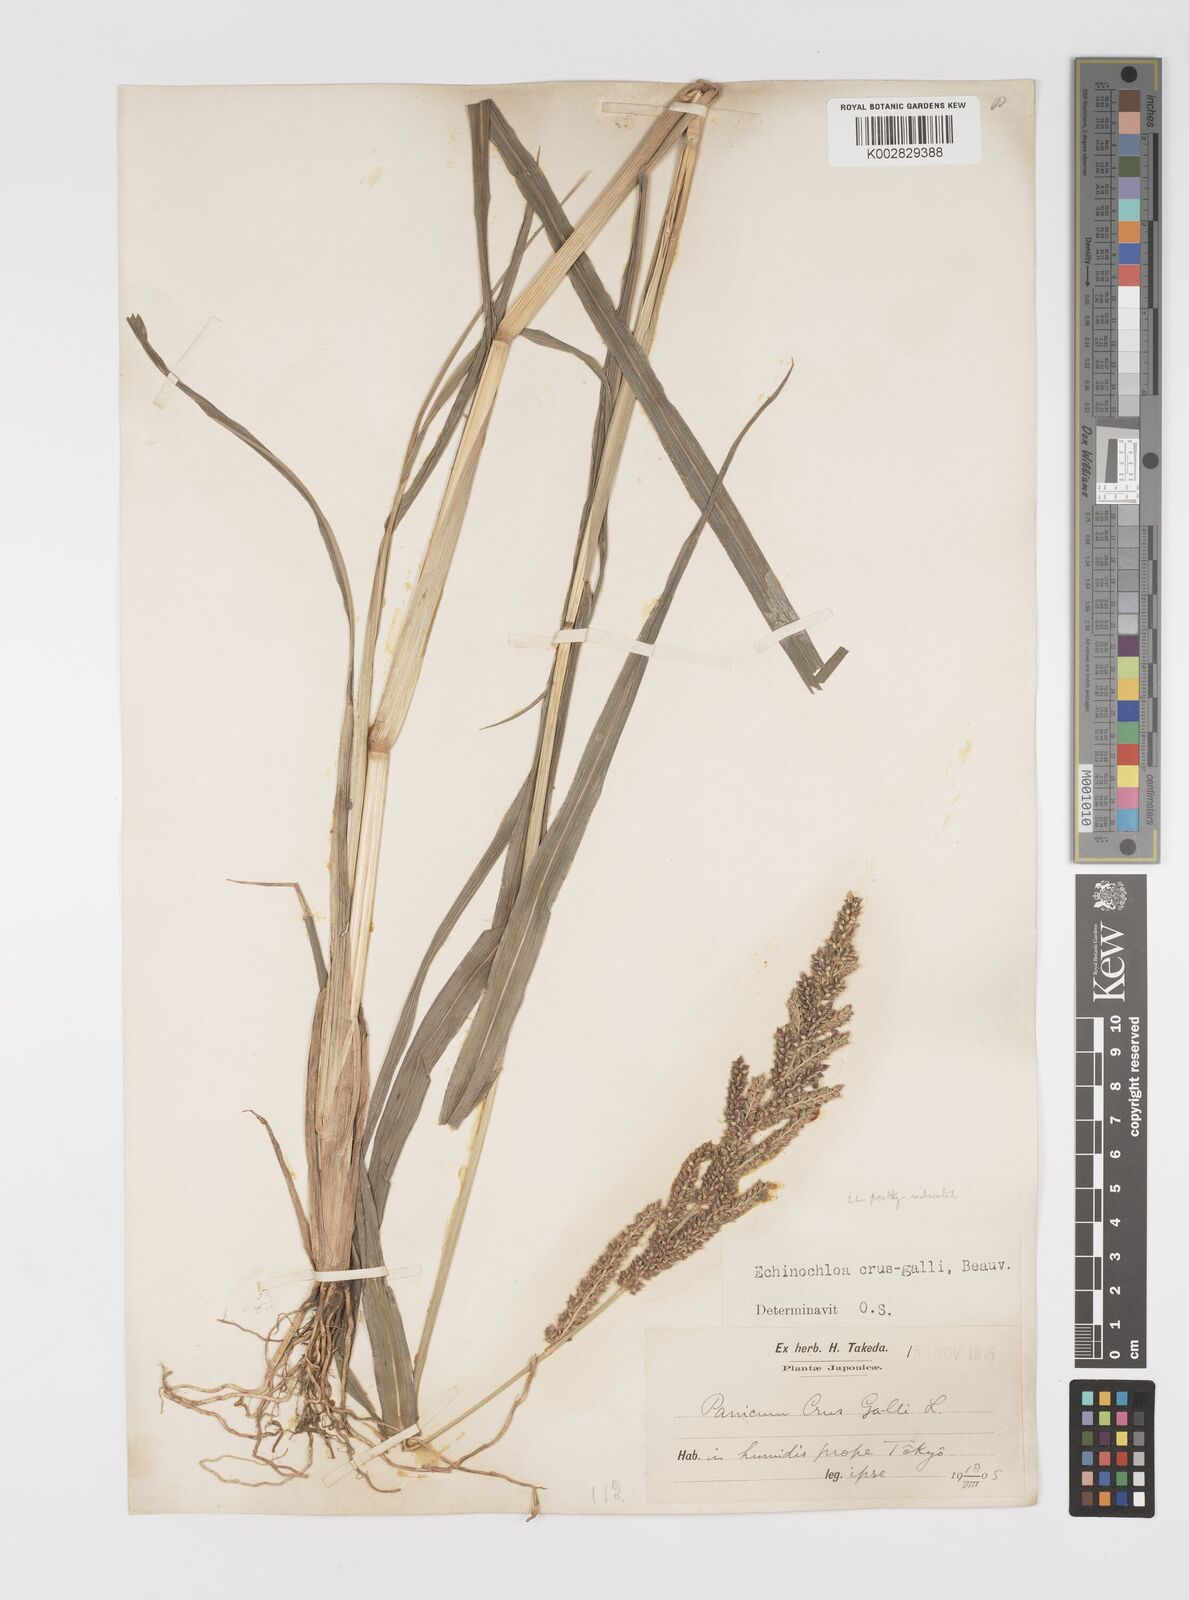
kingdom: Plantae
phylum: Tracheophyta
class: Liliopsida
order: Poales
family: Poaceae
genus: Echinochloa
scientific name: Echinochloa crus-galli
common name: Cockspur
